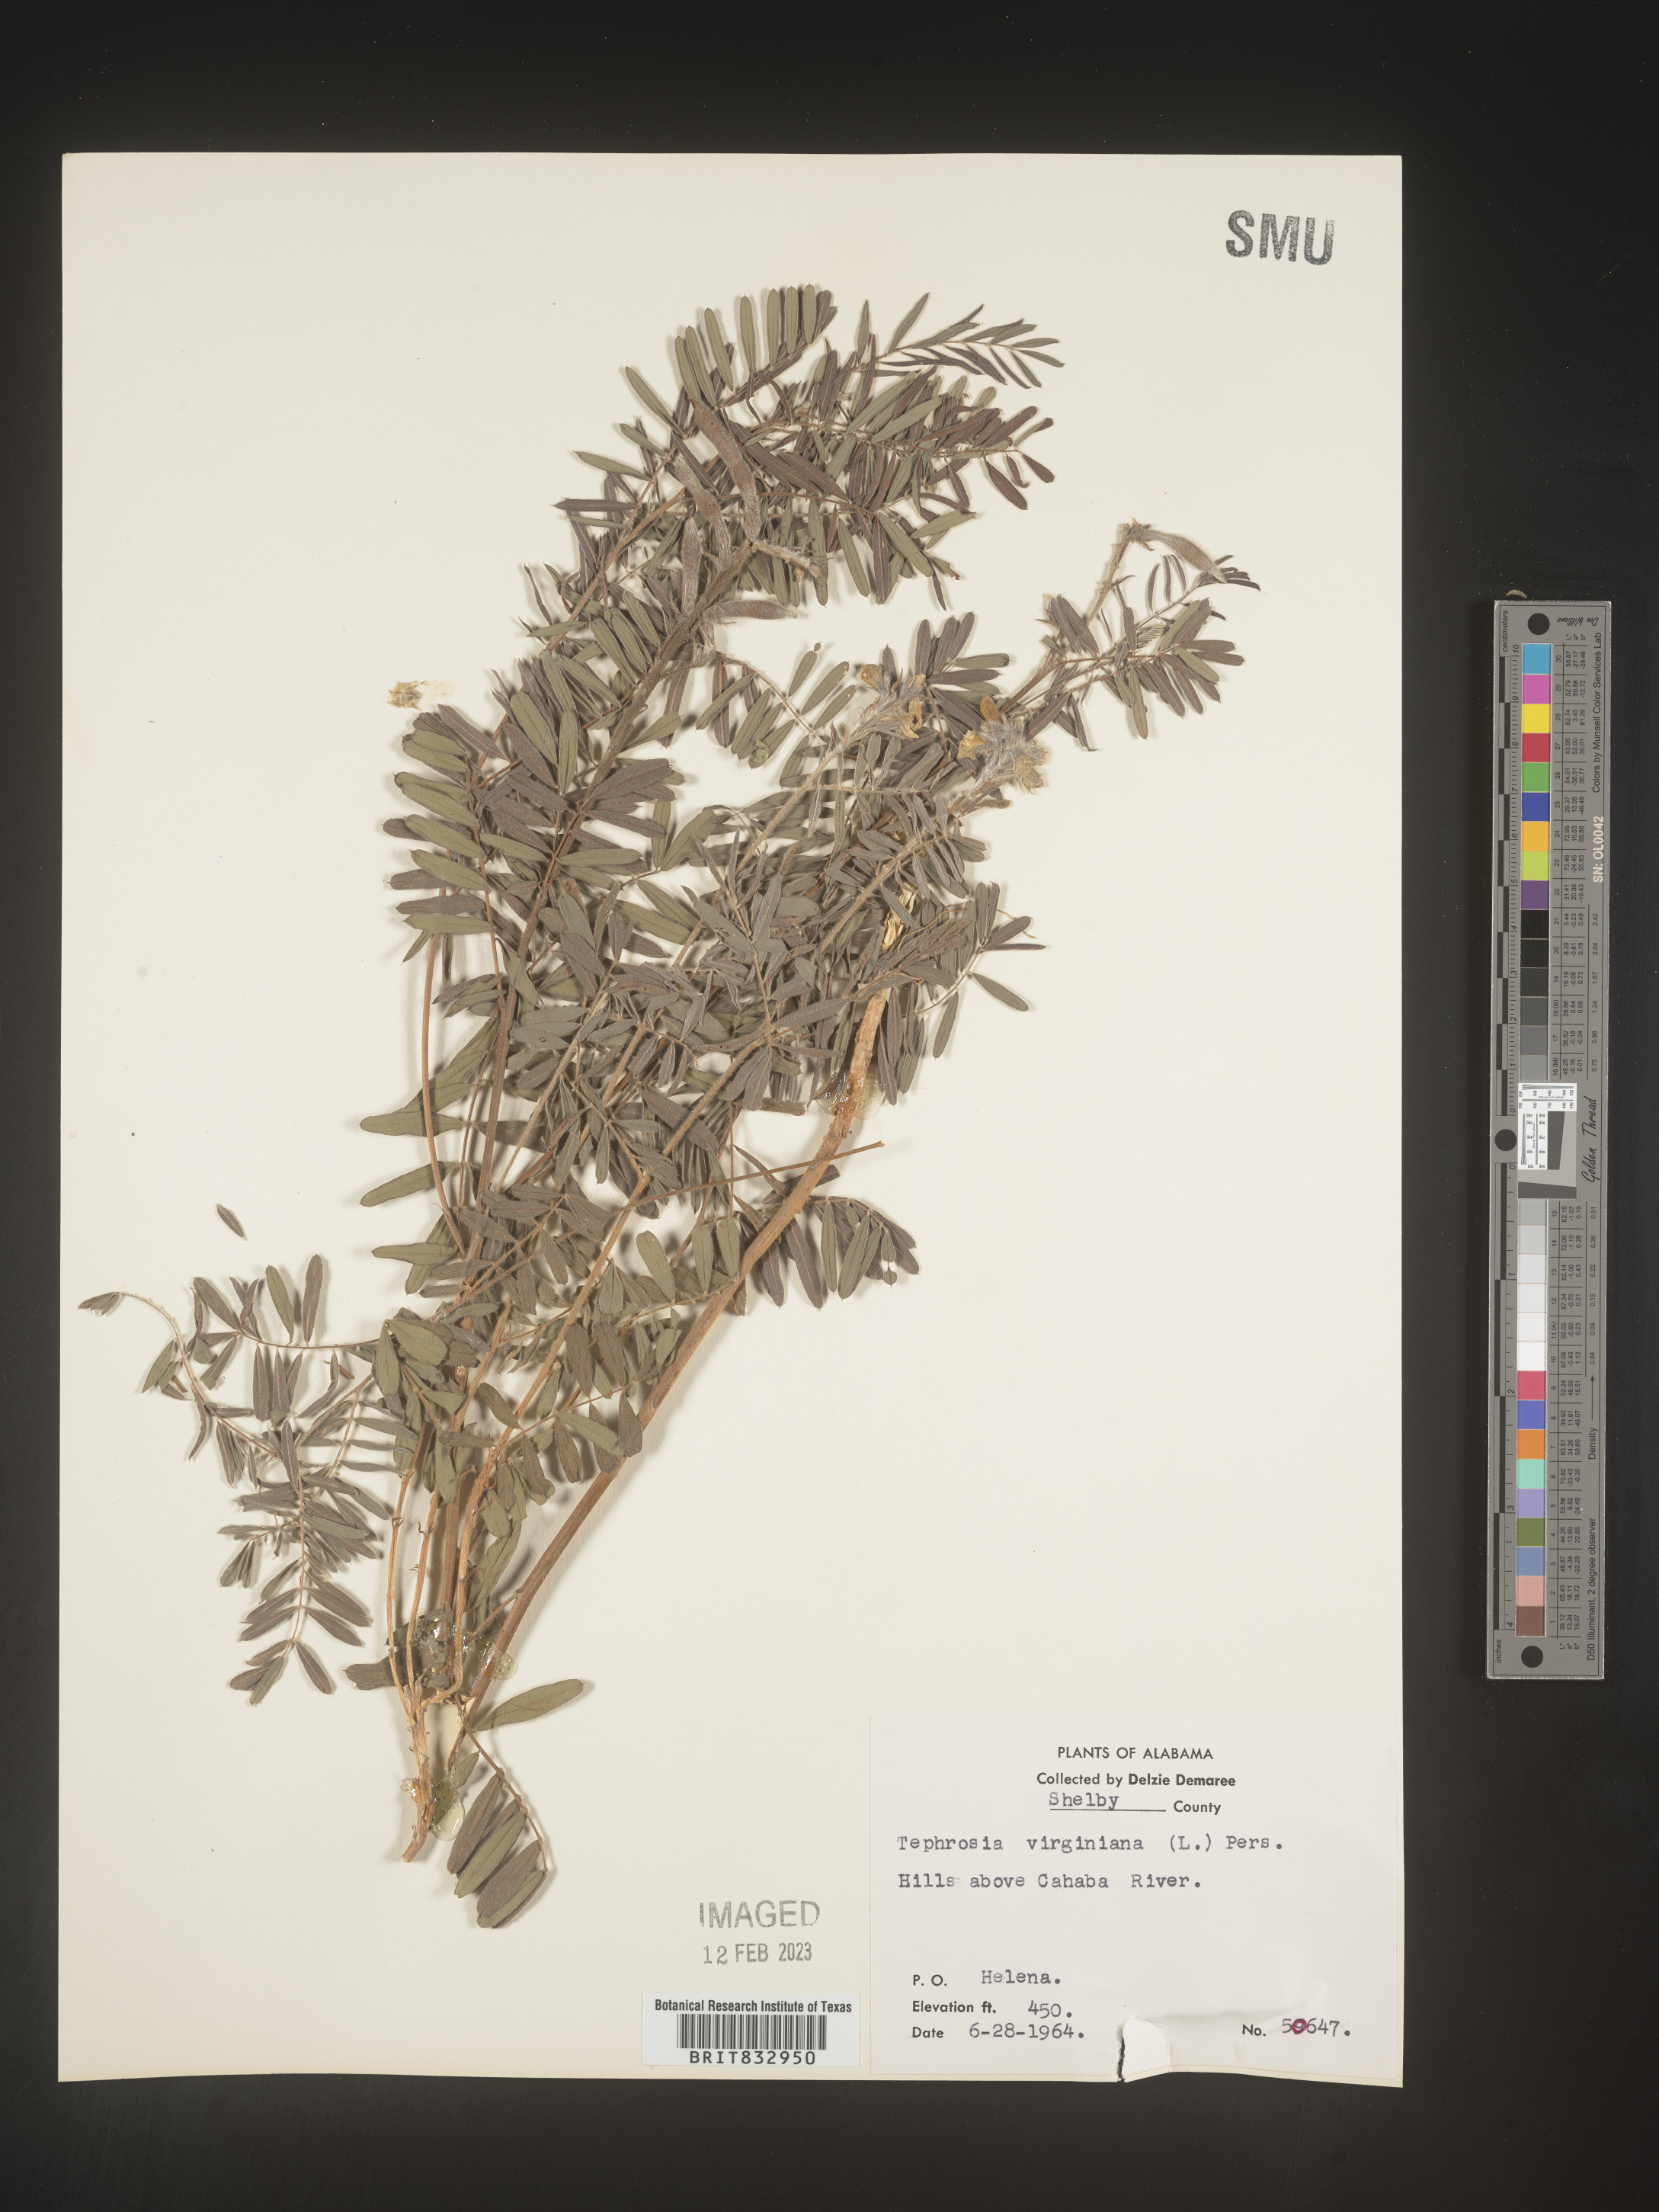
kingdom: Plantae
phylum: Tracheophyta
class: Magnoliopsida
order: Fabales
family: Fabaceae
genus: Tephrosia
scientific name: Tephrosia virginiana
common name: Rabbit-pea
